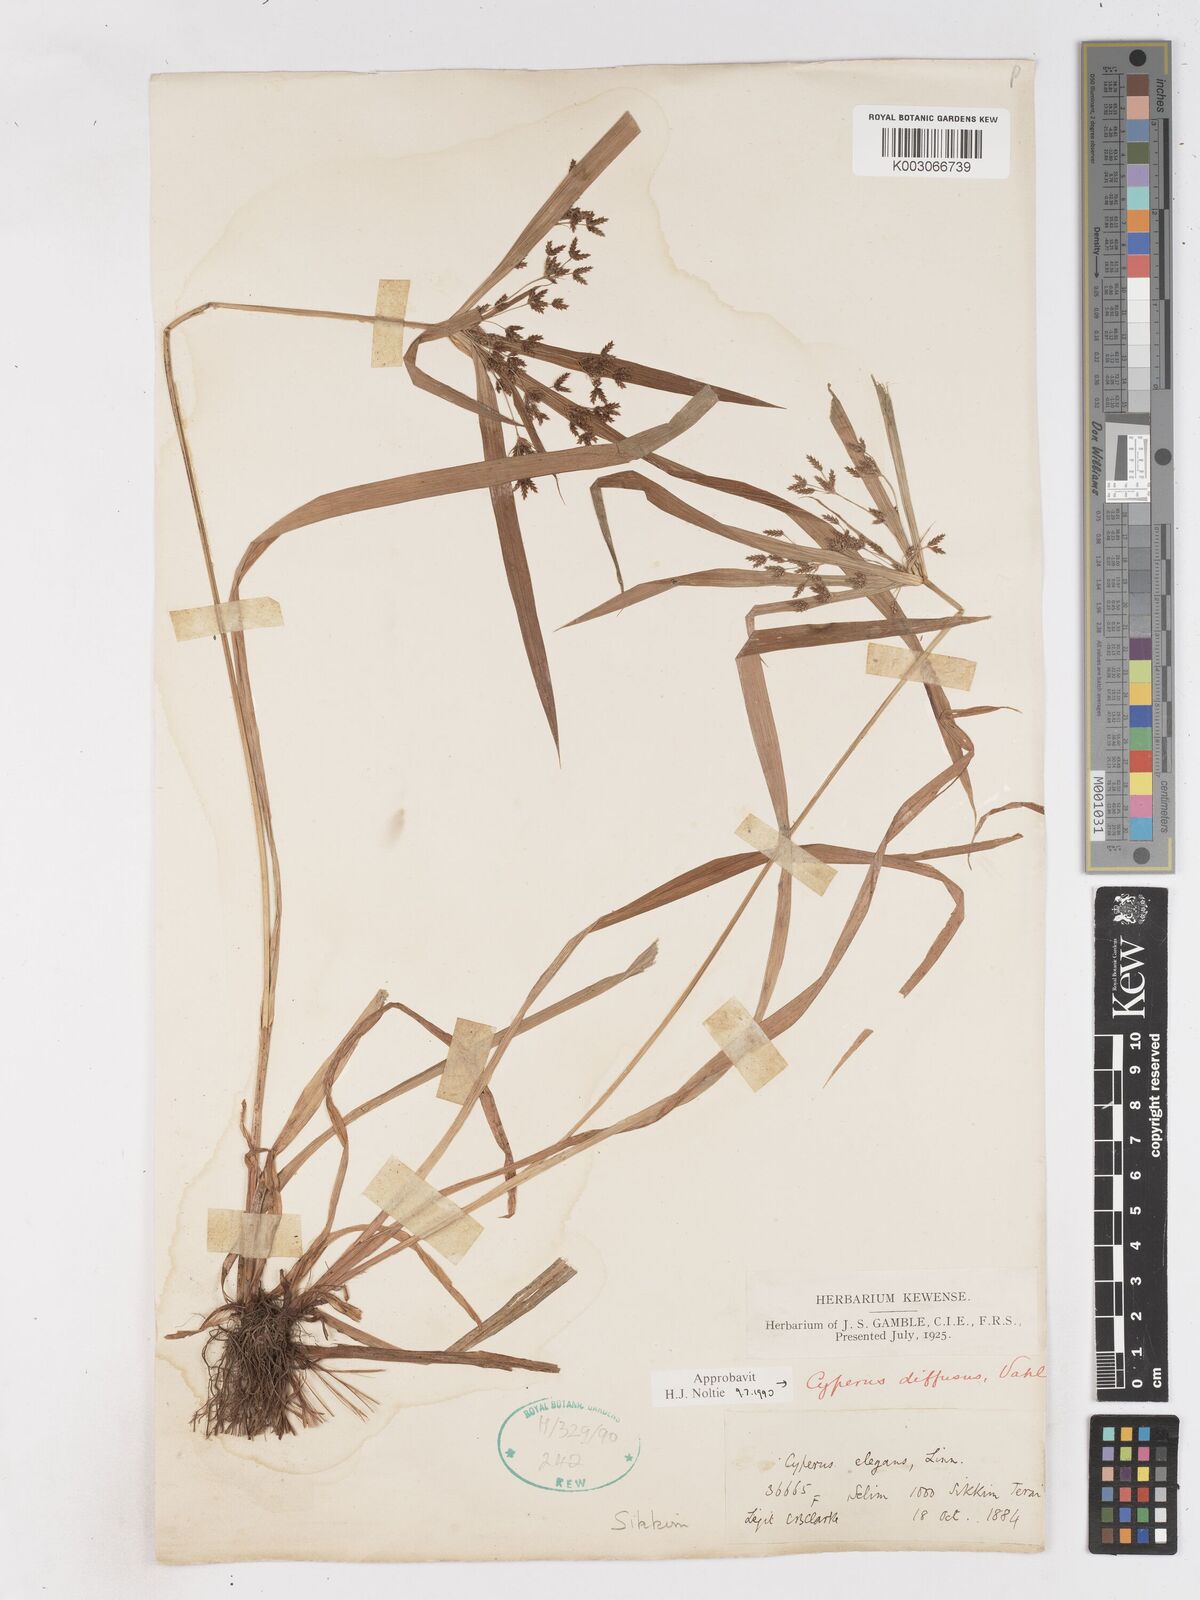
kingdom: Plantae
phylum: Tracheophyta
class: Liliopsida
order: Poales
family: Cyperaceae
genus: Cyperus
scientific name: Cyperus diffusus
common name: Dwarf umbrella grass
